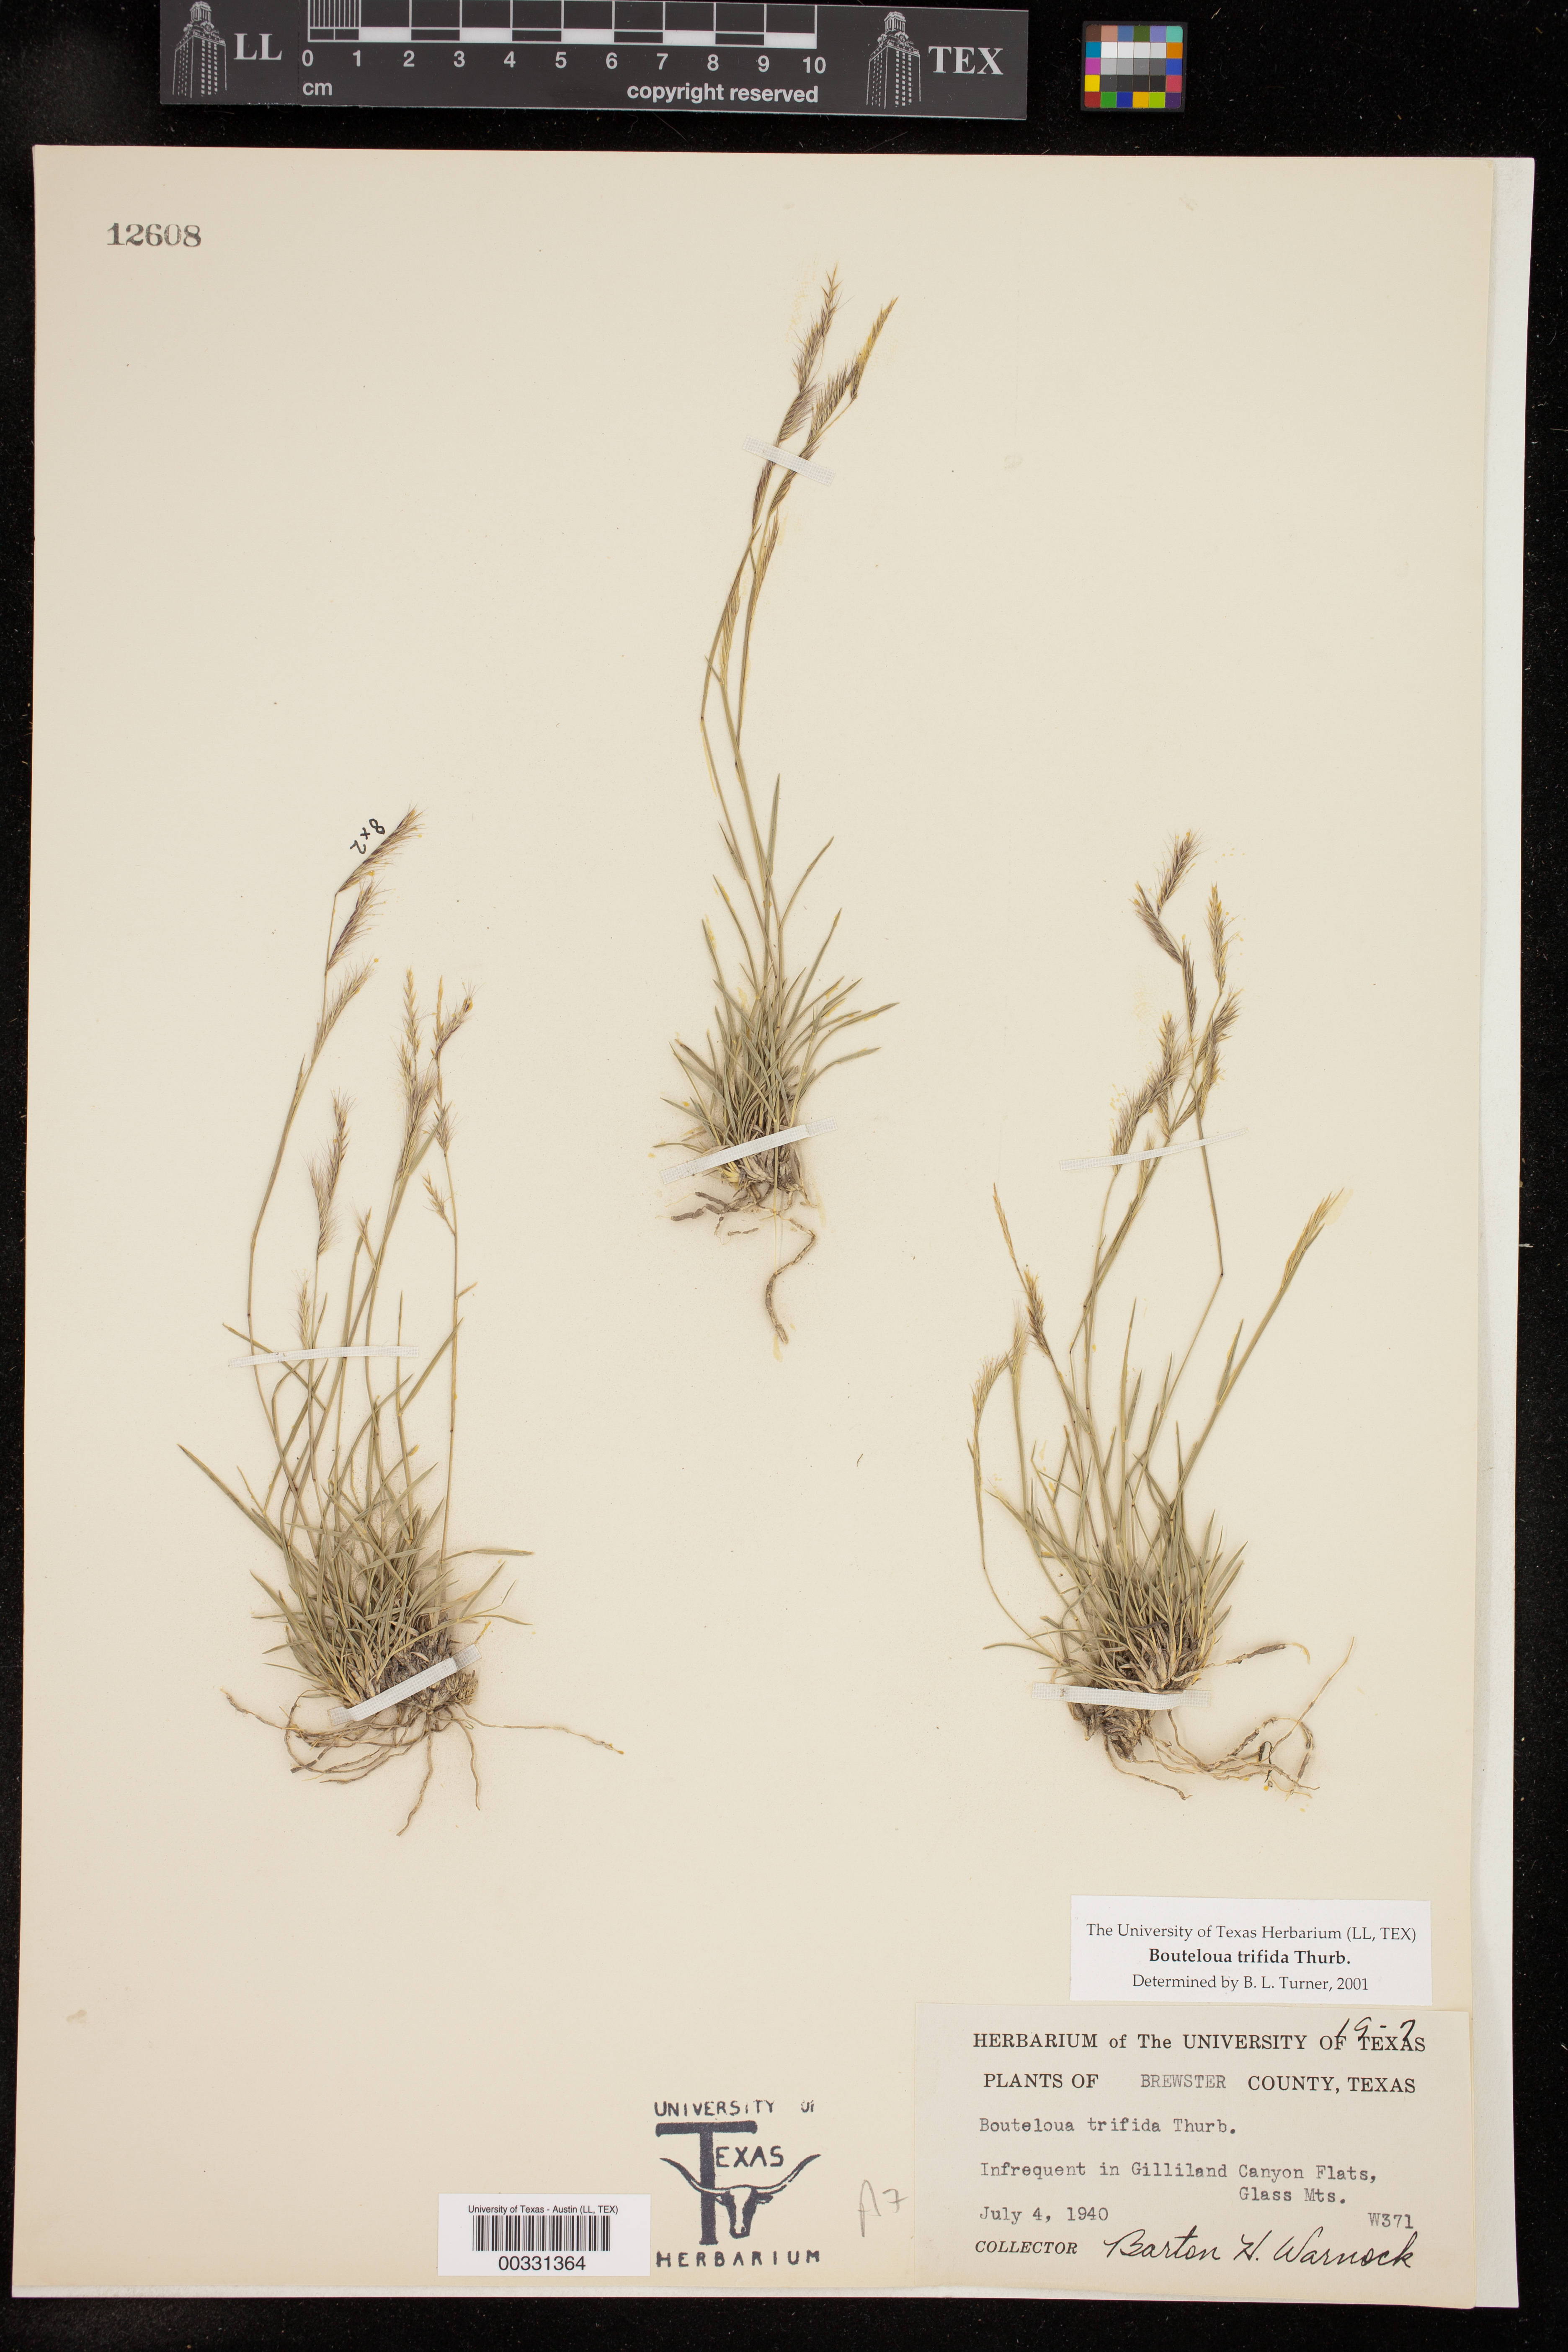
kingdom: Plantae
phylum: Tracheophyta
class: Liliopsida
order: Poales
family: Poaceae
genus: Bouteloua
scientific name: Bouteloua trifida
